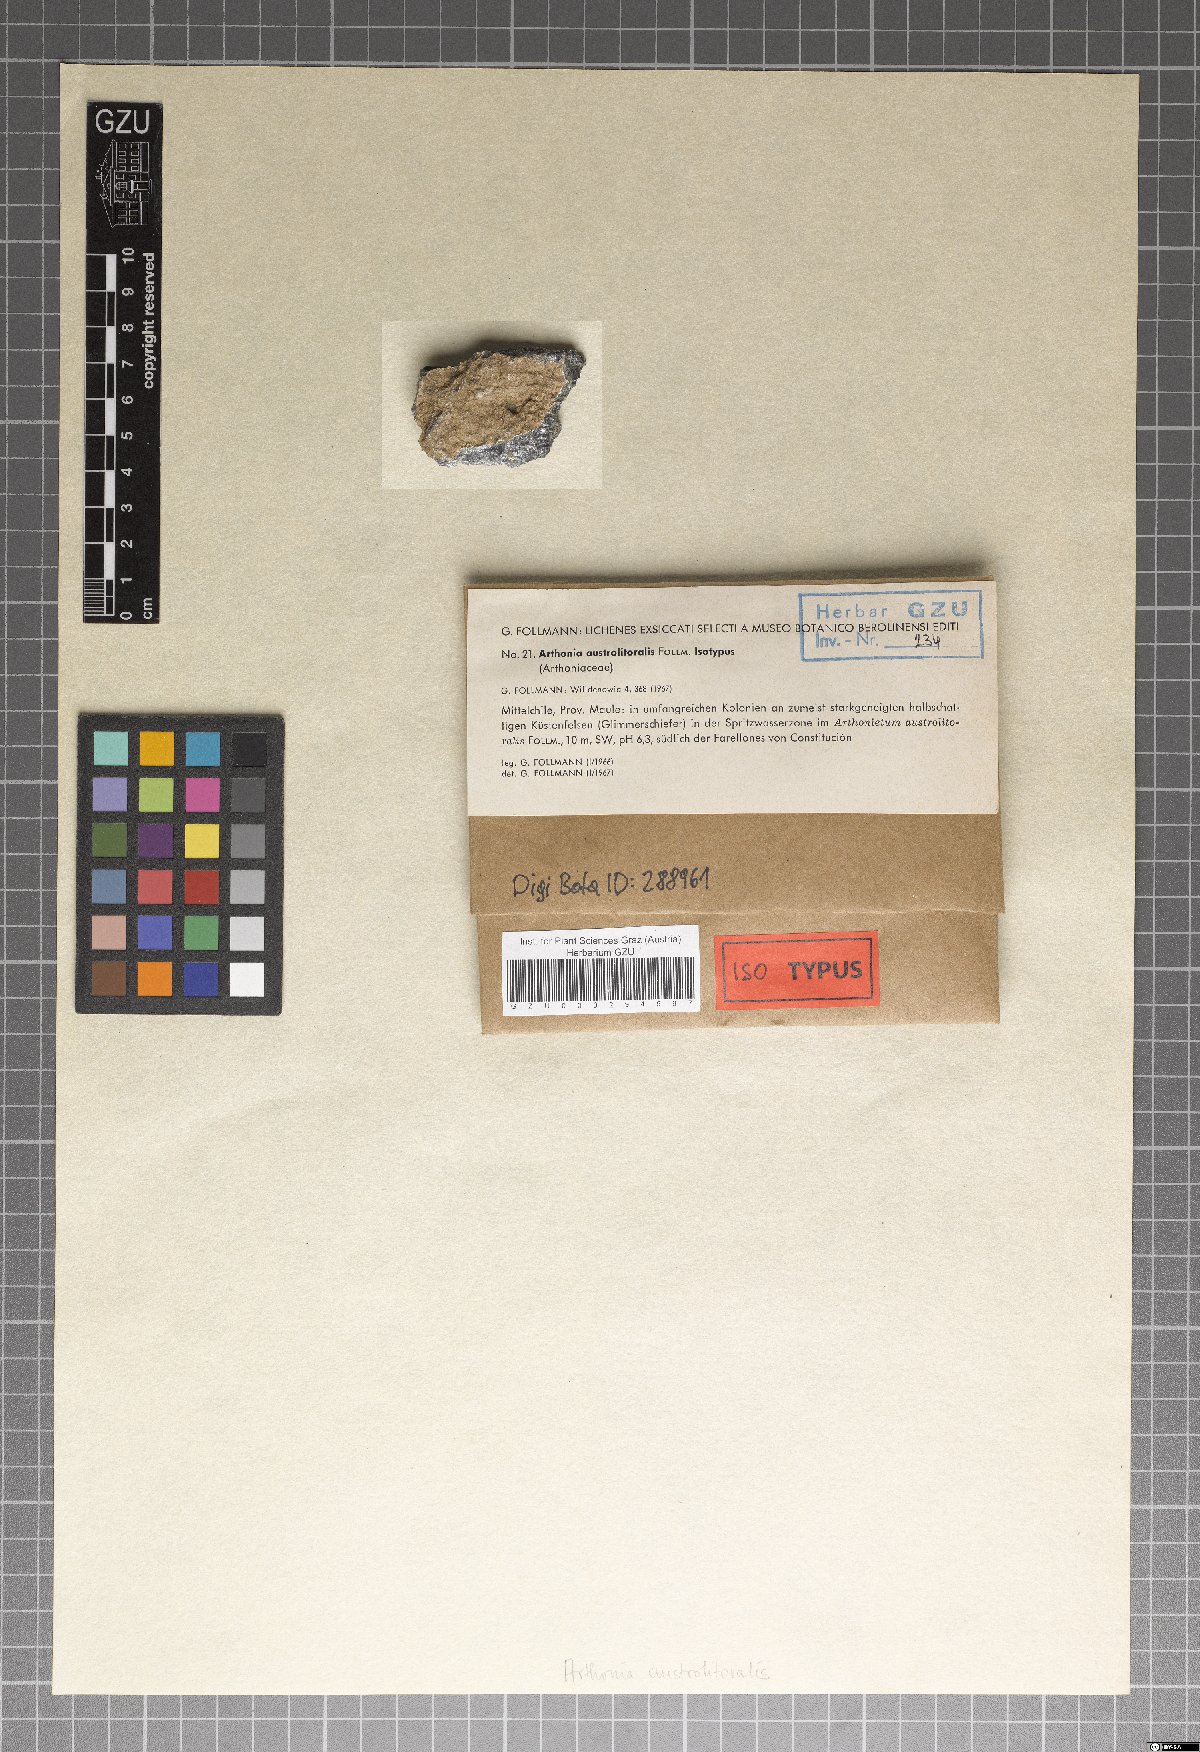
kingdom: Fungi
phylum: Ascomycota
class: Arthoniomycetes
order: Arthoniales
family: Arthoniaceae
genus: Arthonia
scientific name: Arthonia
